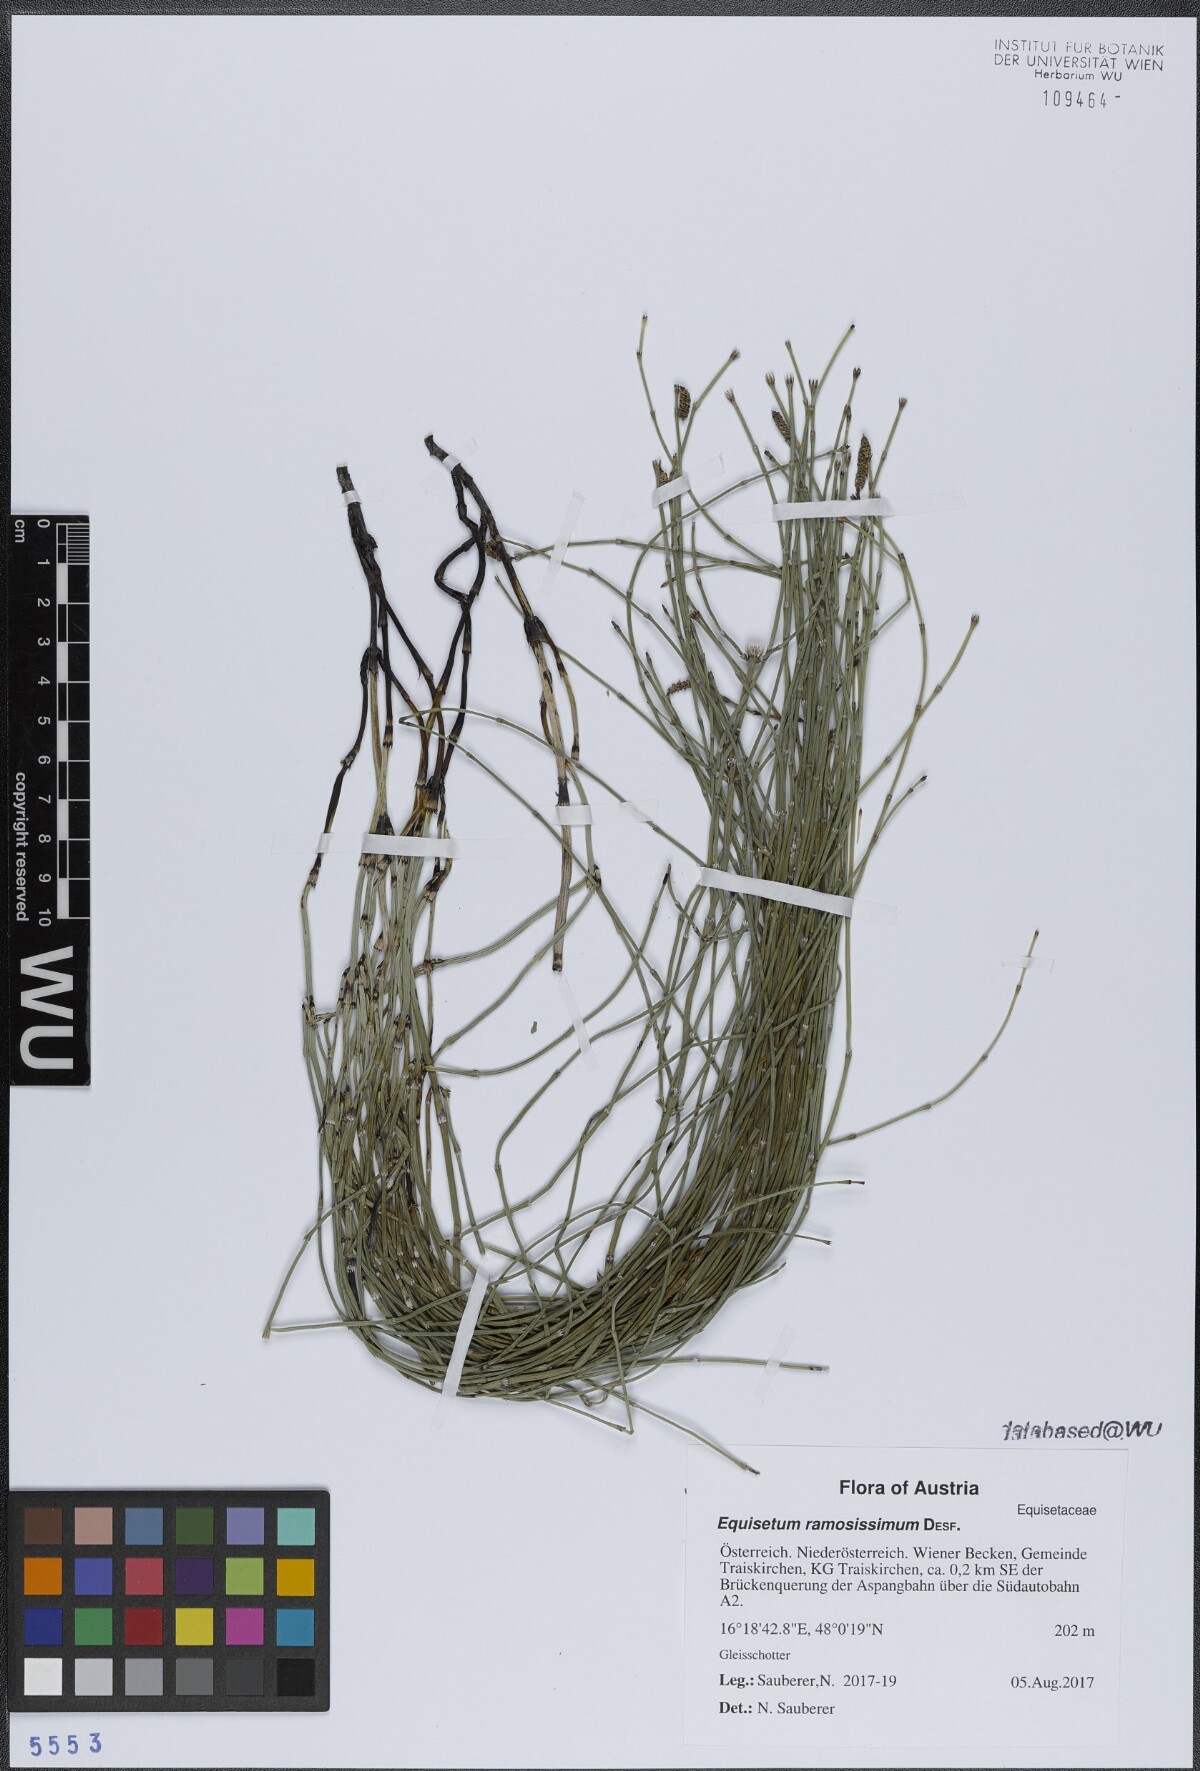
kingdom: Plantae
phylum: Tracheophyta
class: Polypodiopsida
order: Equisetales
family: Equisetaceae
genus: Equisetum
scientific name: Equisetum ramosissimum
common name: Branched horsetail
